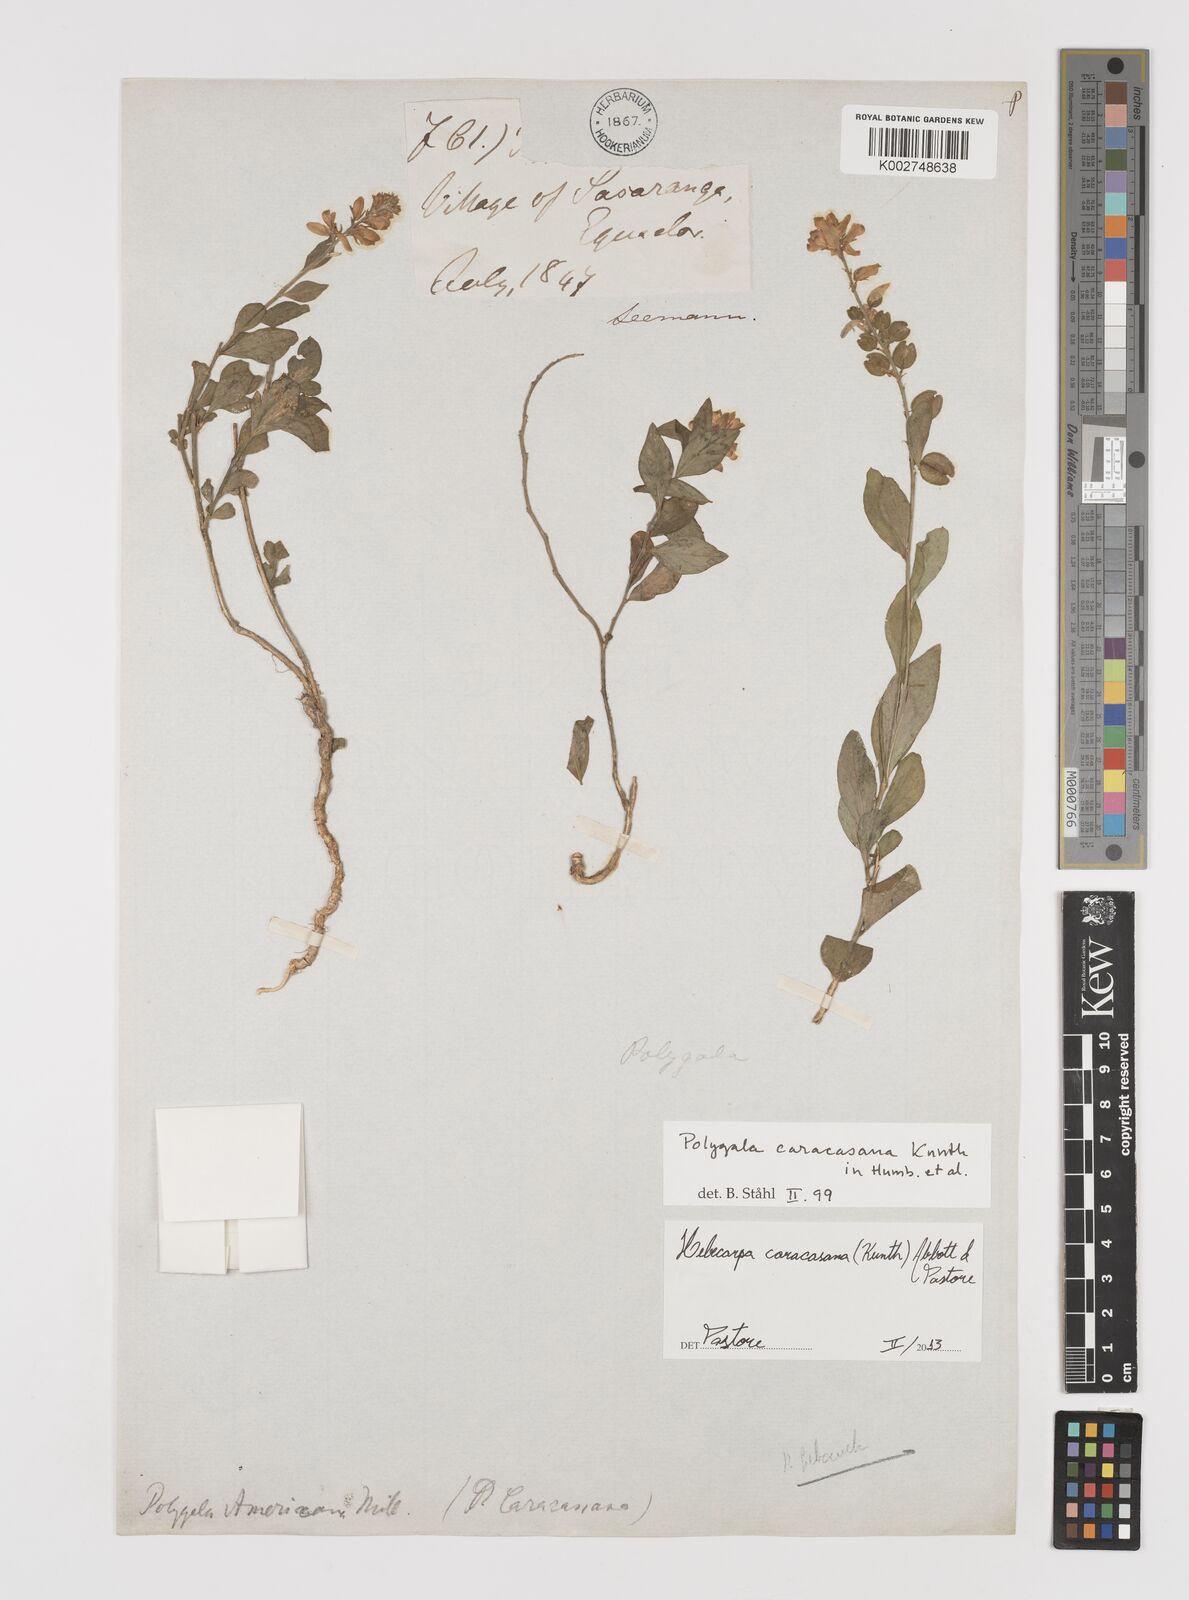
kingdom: Plantae
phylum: Tracheophyta
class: Magnoliopsida
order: Fabales
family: Polygalaceae
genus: Hebecarpa
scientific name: Hebecarpa caracasana
